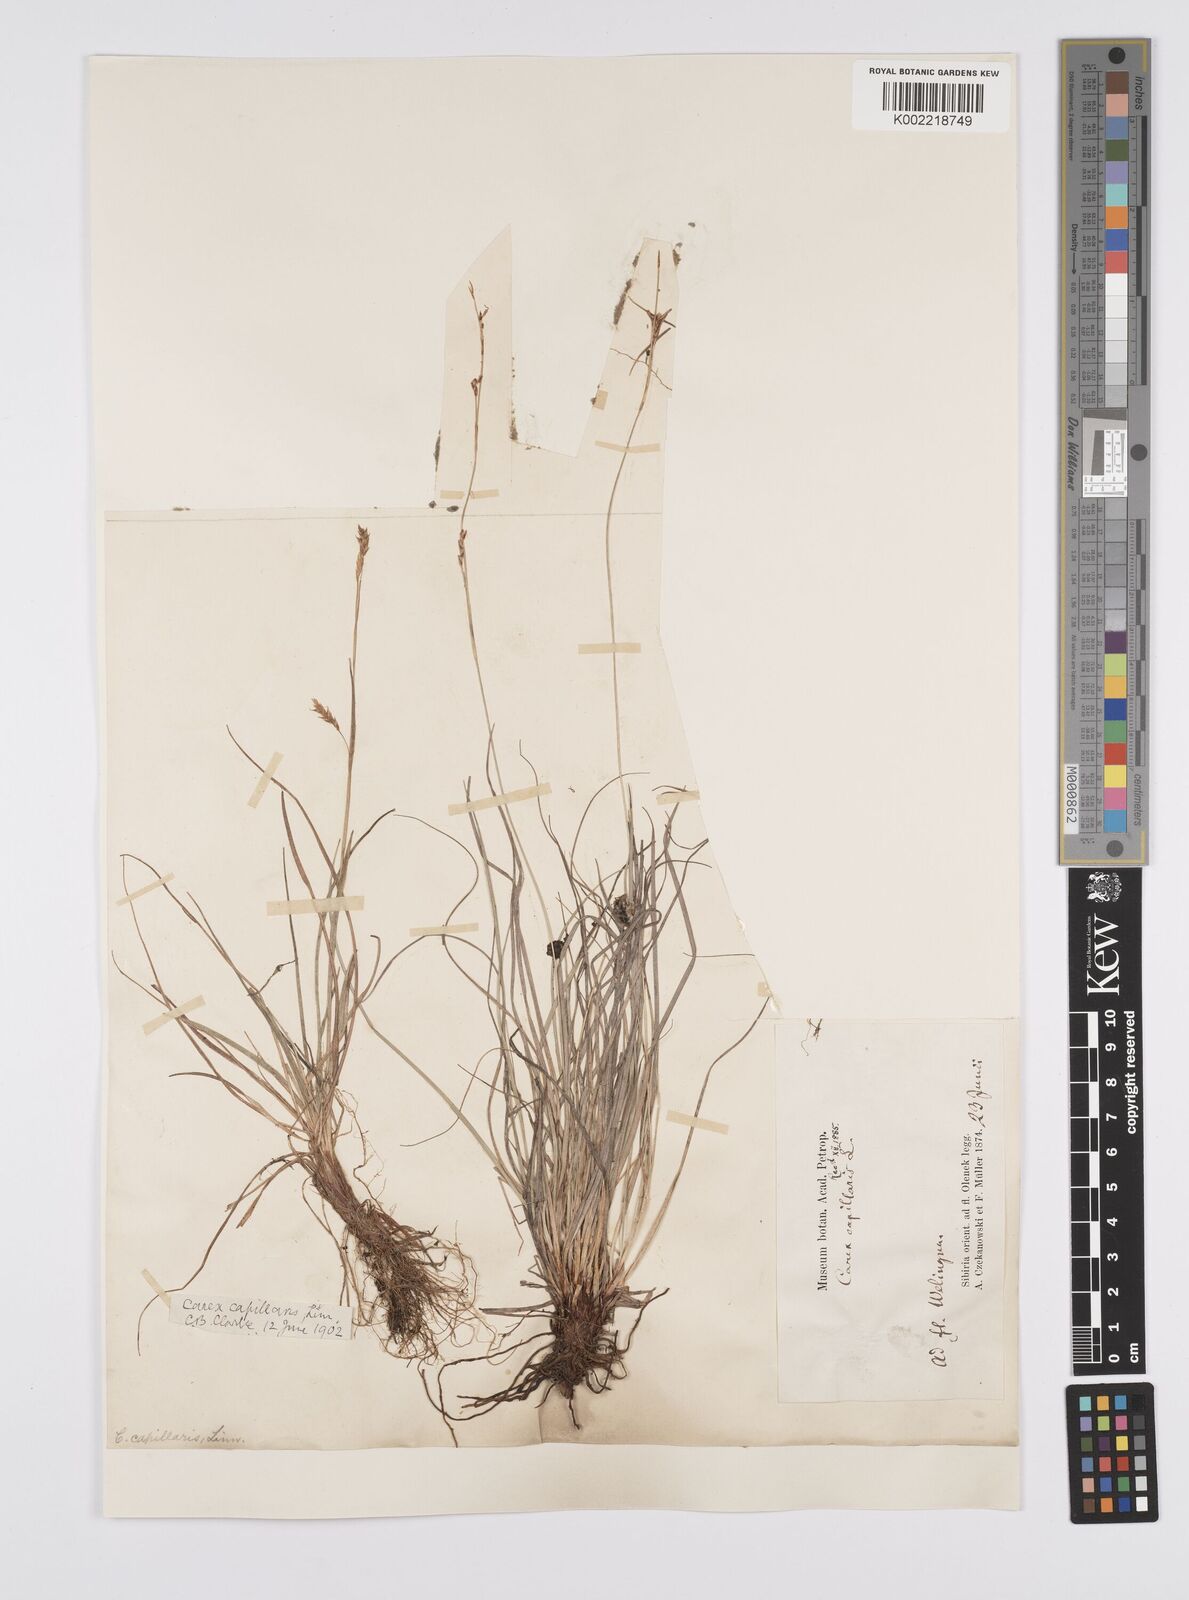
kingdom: Plantae
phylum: Tracheophyta
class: Liliopsida
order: Poales
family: Cyperaceae
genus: Carex
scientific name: Carex capillaris
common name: Hair sedge
